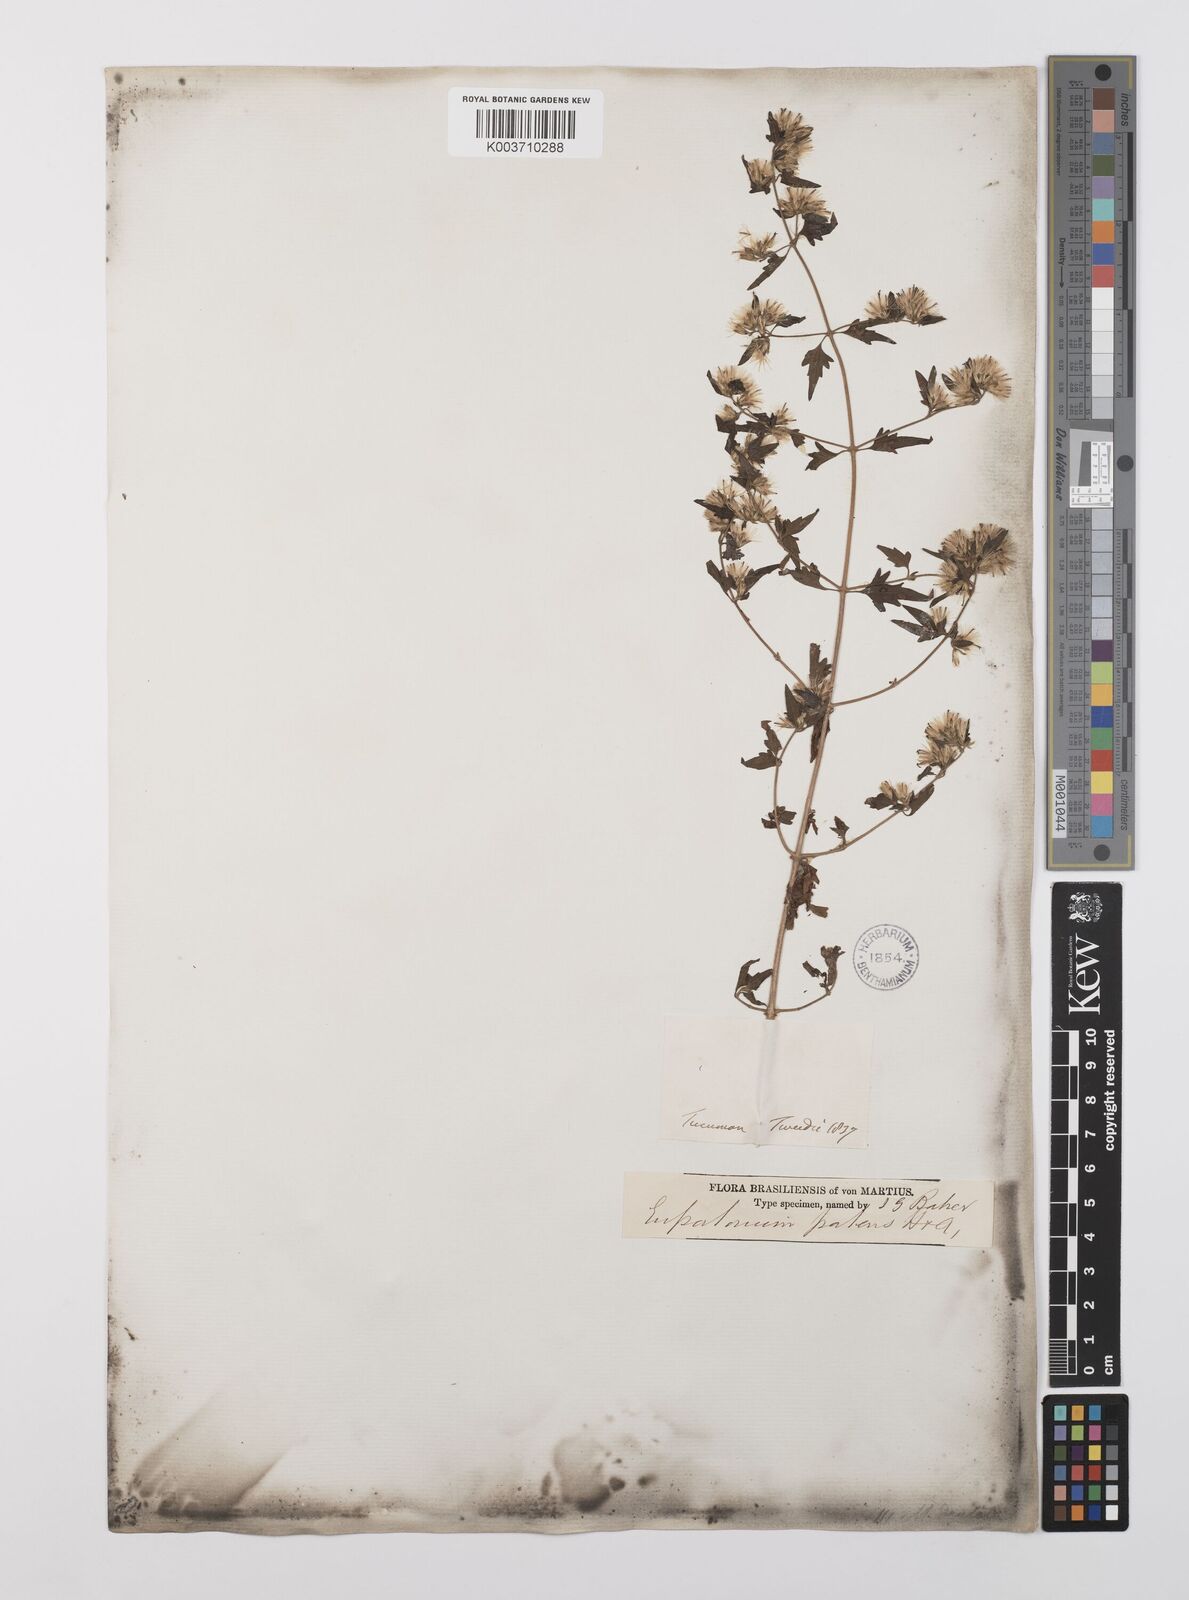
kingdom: Plantae
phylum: Tracheophyta
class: Magnoliopsida
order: Asterales
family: Asteraceae
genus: Austrobrickellia
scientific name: Austrobrickellia patens
